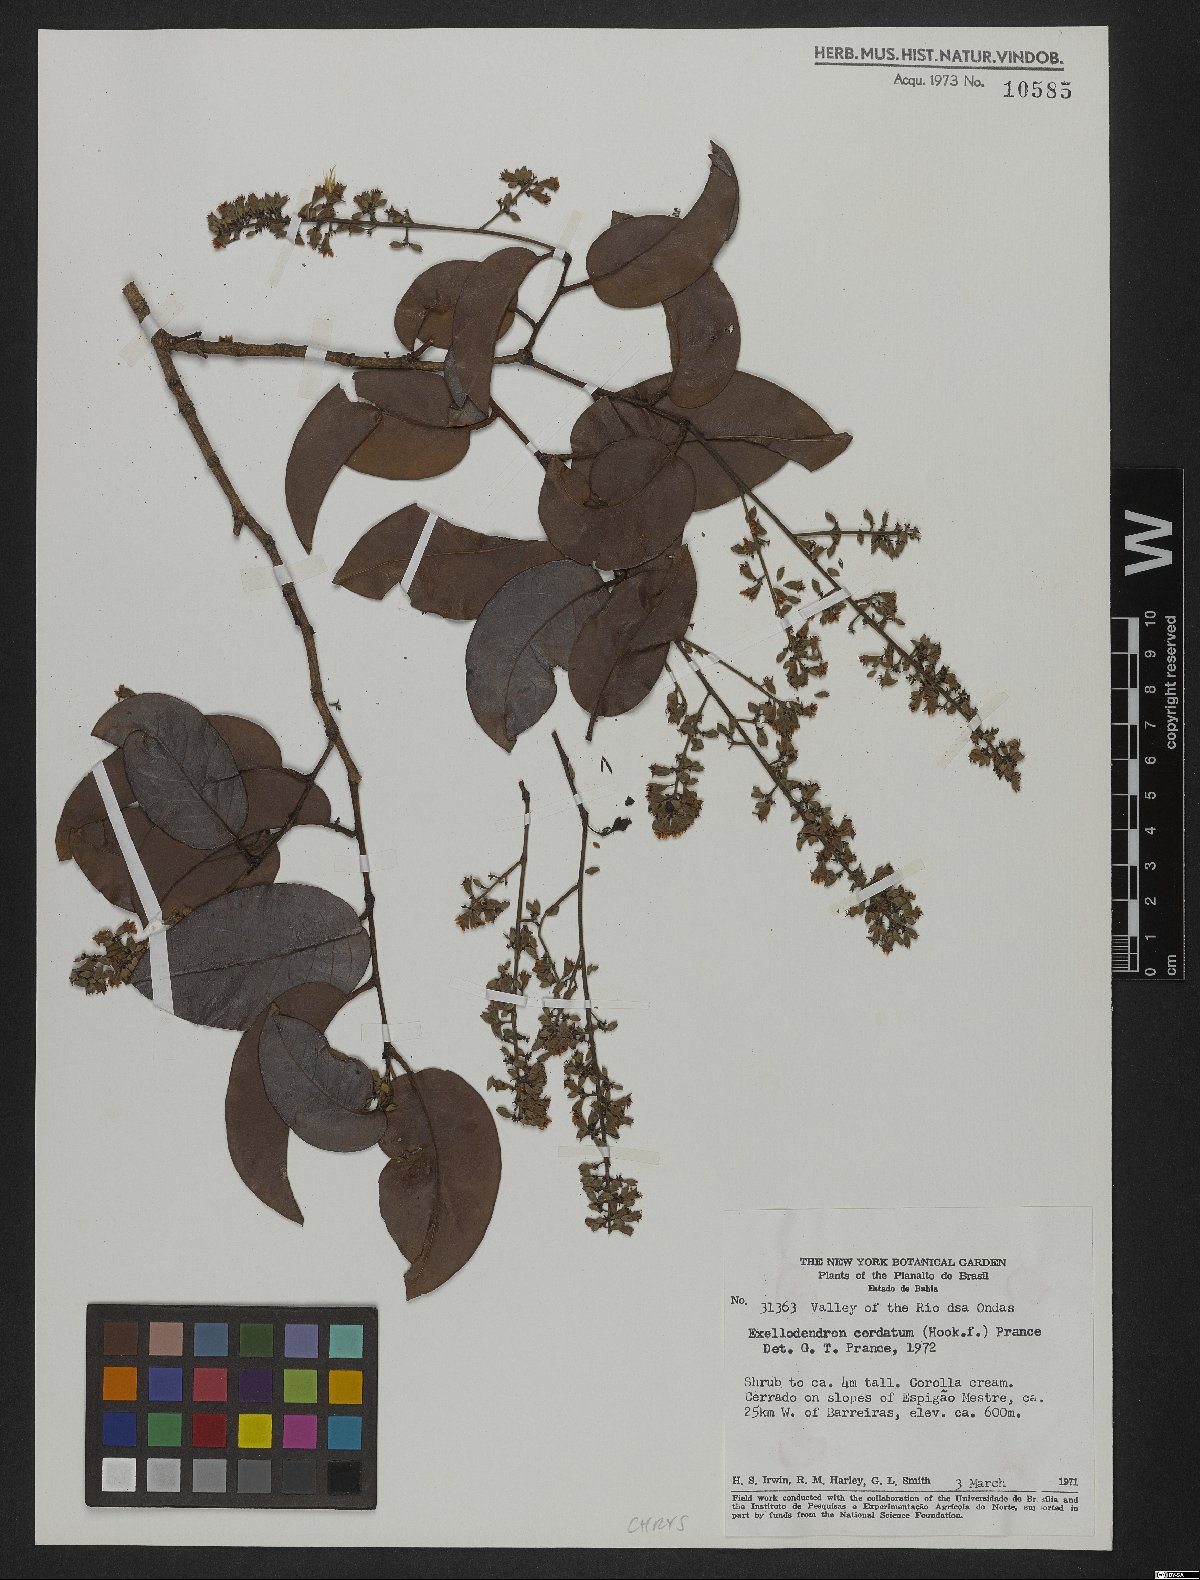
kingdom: Plantae
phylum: Tracheophyta
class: Magnoliopsida
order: Malpighiales
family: Chrysobalanaceae
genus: Exellodendron
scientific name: Exellodendron cordatum
